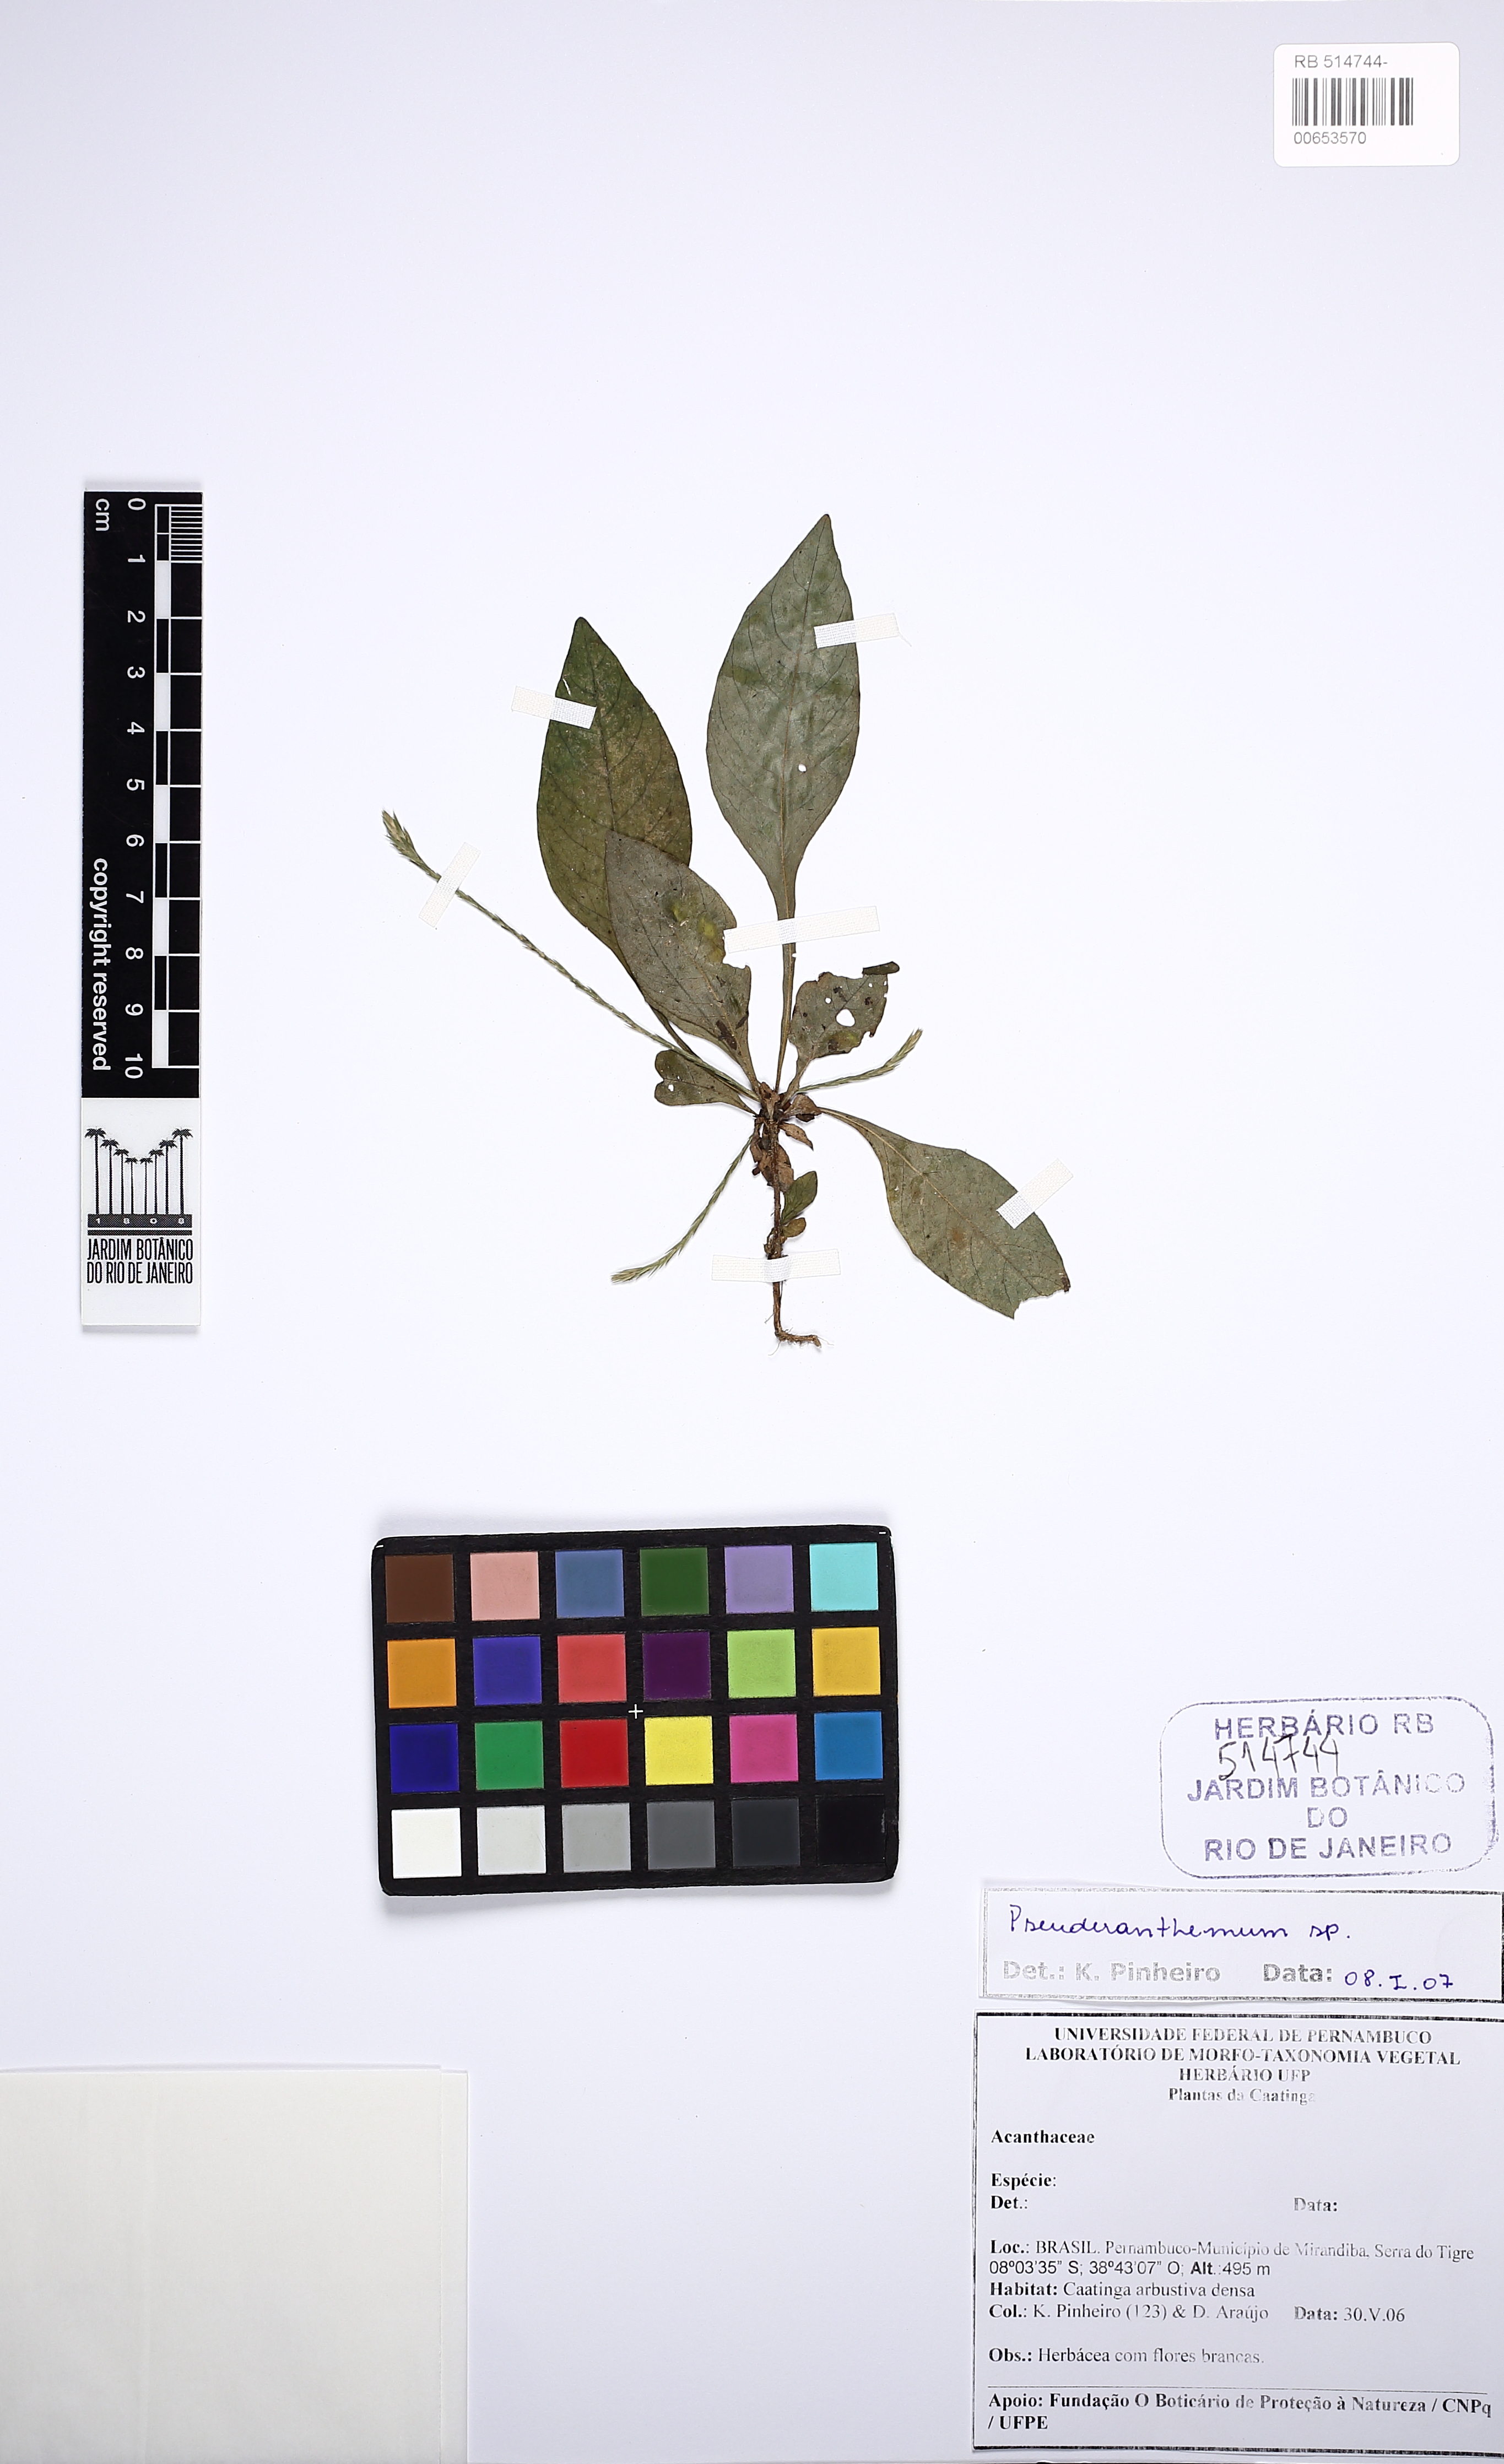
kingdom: Plantae
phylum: Tracheophyta
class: Magnoliopsida
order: Lamiales
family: Acanthaceae
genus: Elytraria
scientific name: Elytraria imbricata
